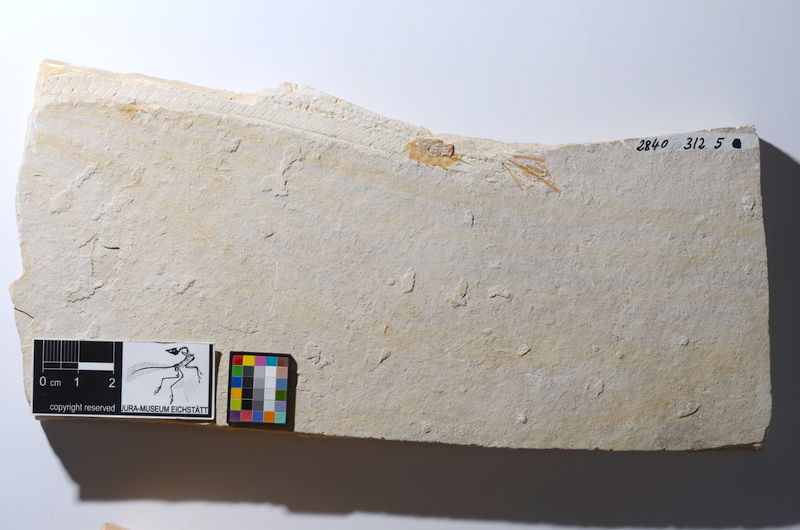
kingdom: Animalia
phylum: Chordata
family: Aspidorhynchidae
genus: Belonostomus
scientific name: Belonostomus
